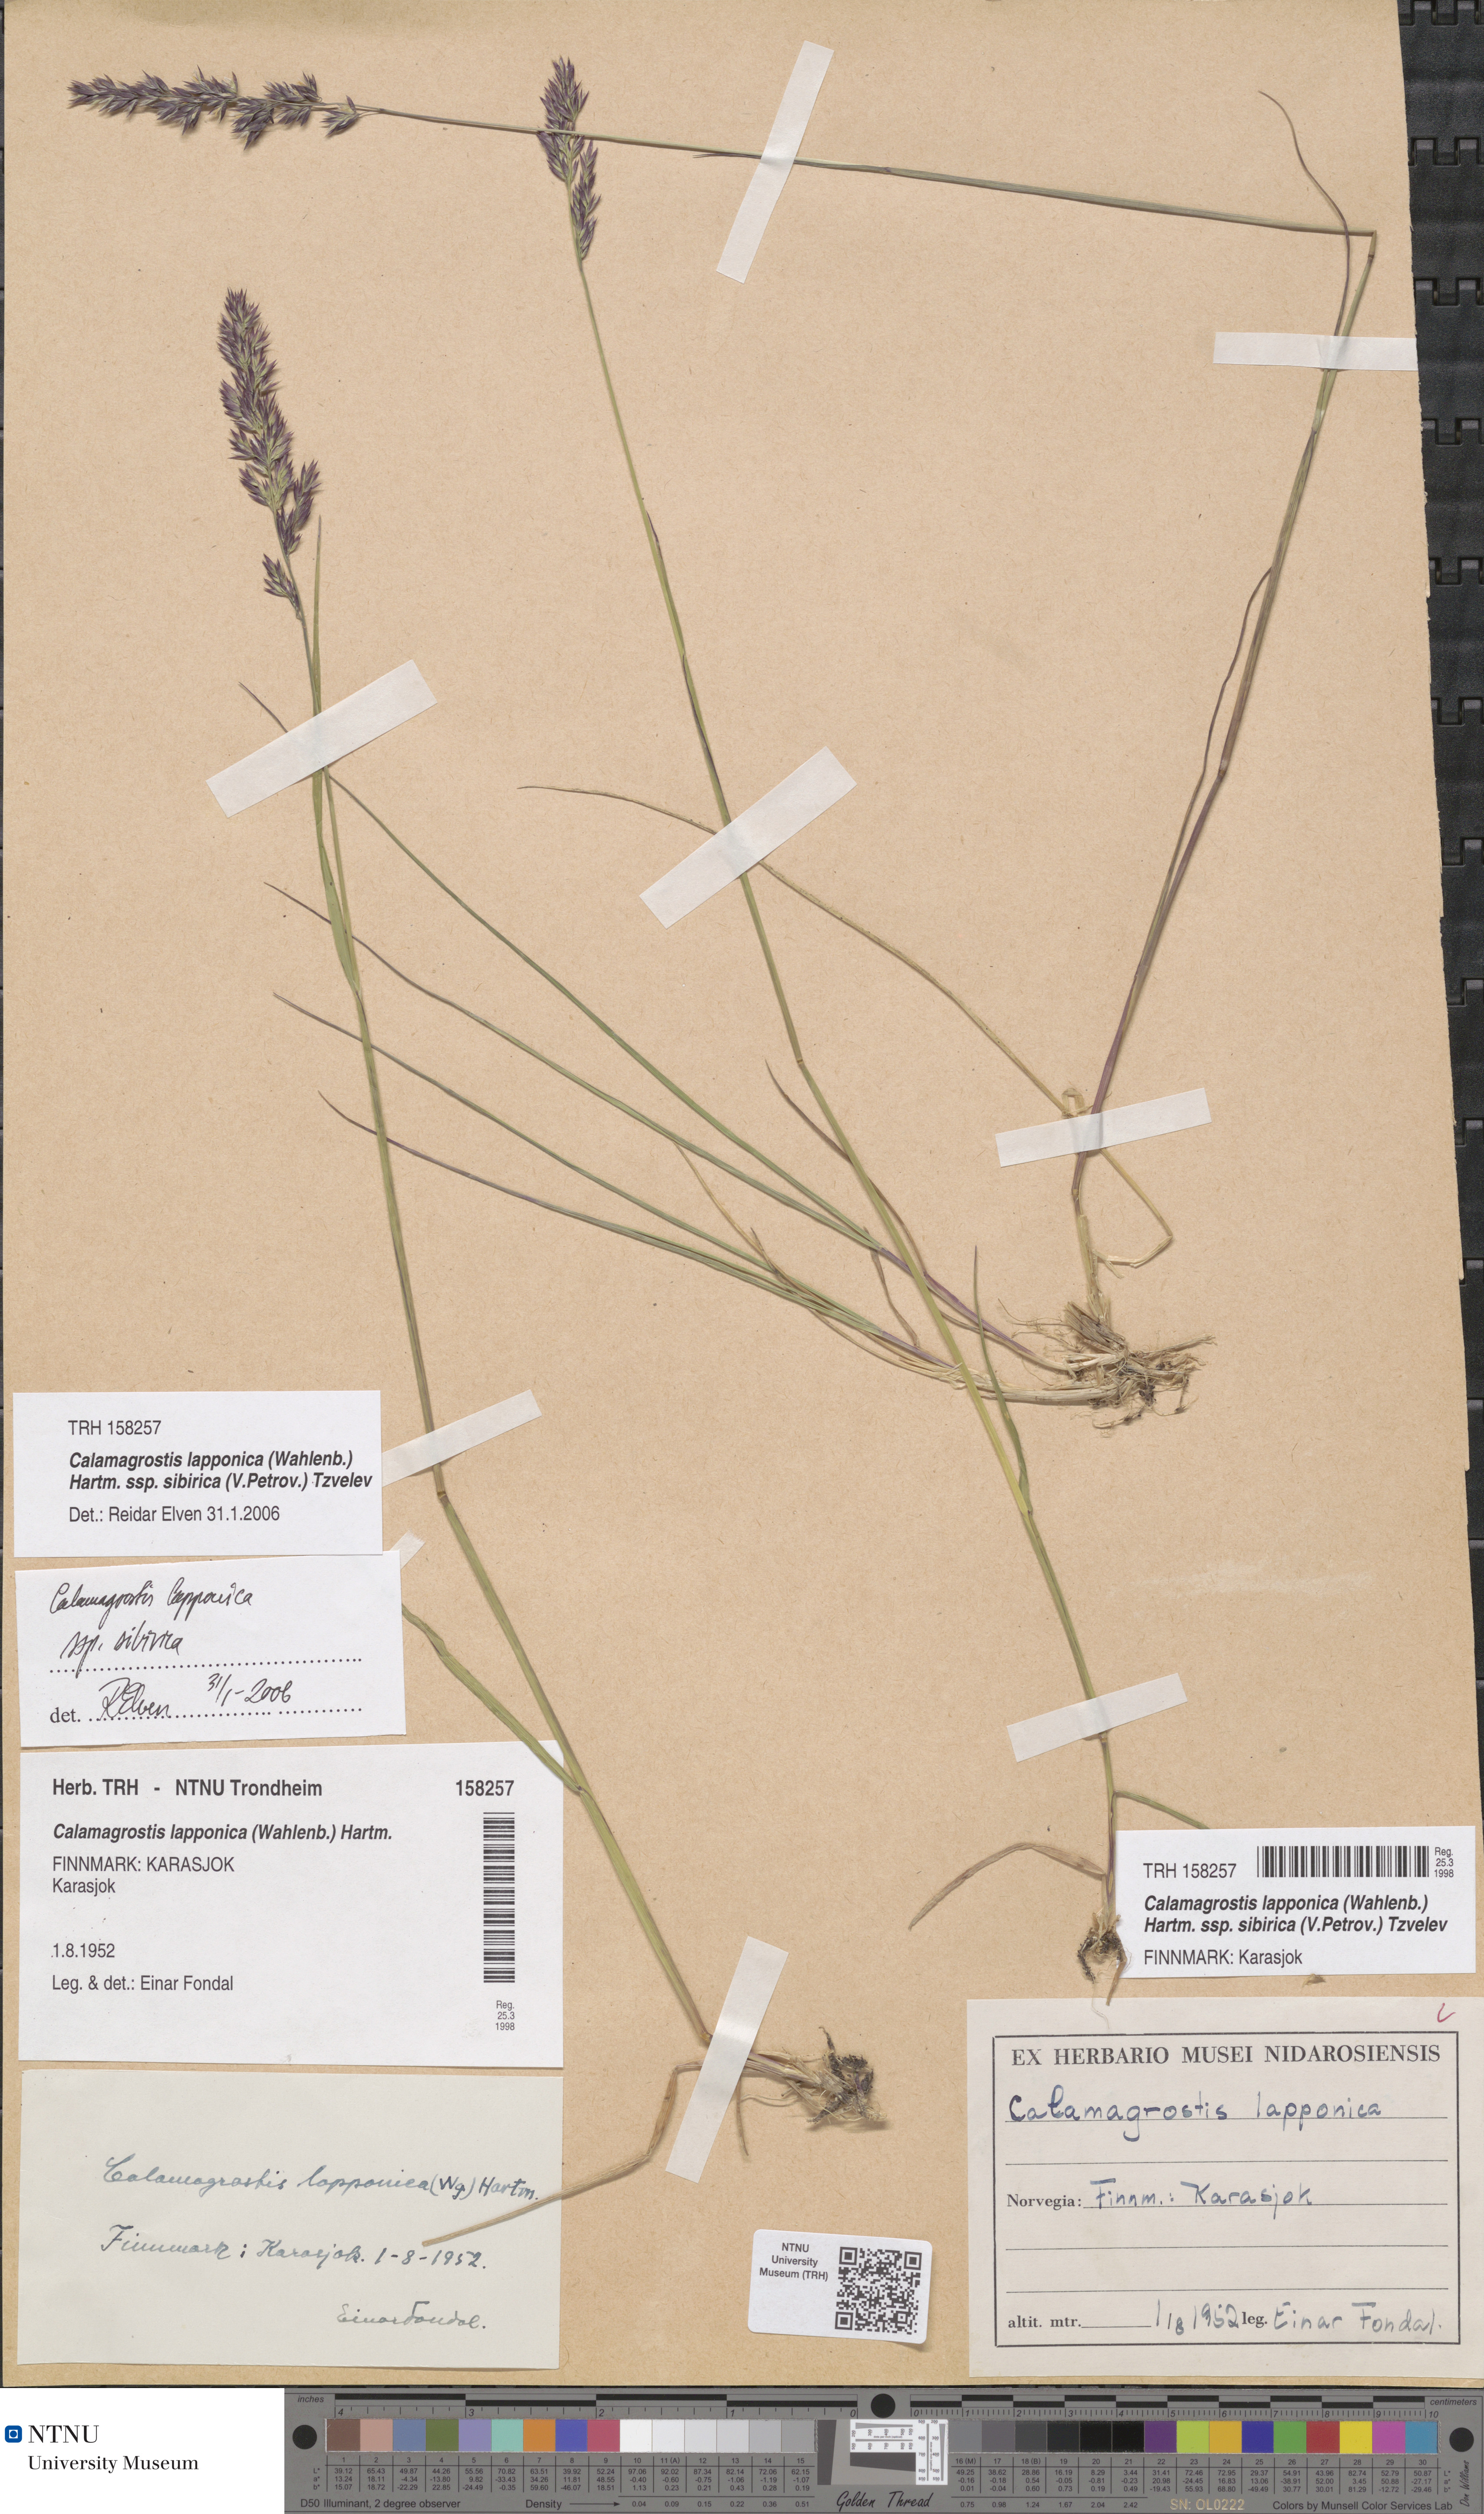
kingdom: Plantae
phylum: Tracheophyta
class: Liliopsida
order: Poales
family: Poaceae
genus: Calamagrostis
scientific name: Calamagrostis lapponica
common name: Lapland reedgrass
